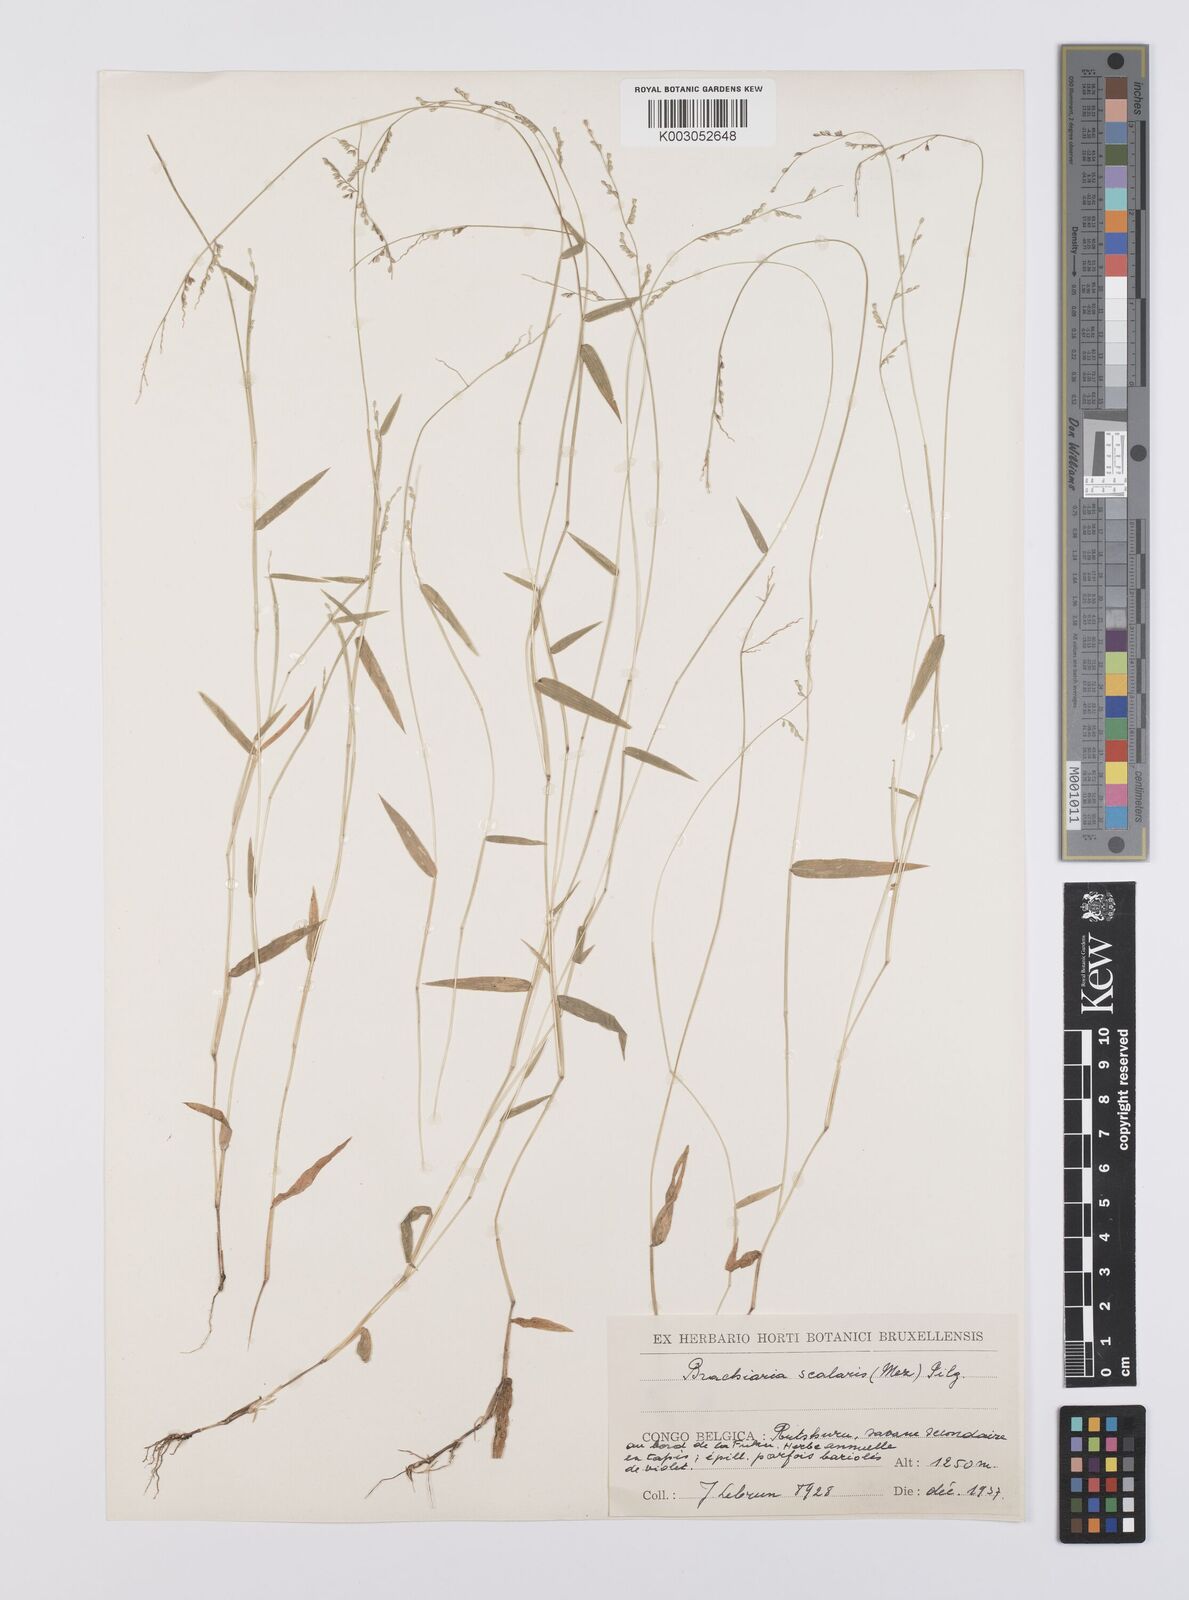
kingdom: Plantae
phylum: Tracheophyta
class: Liliopsida
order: Poales
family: Poaceae
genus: Urochloa
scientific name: Urochloa comata
